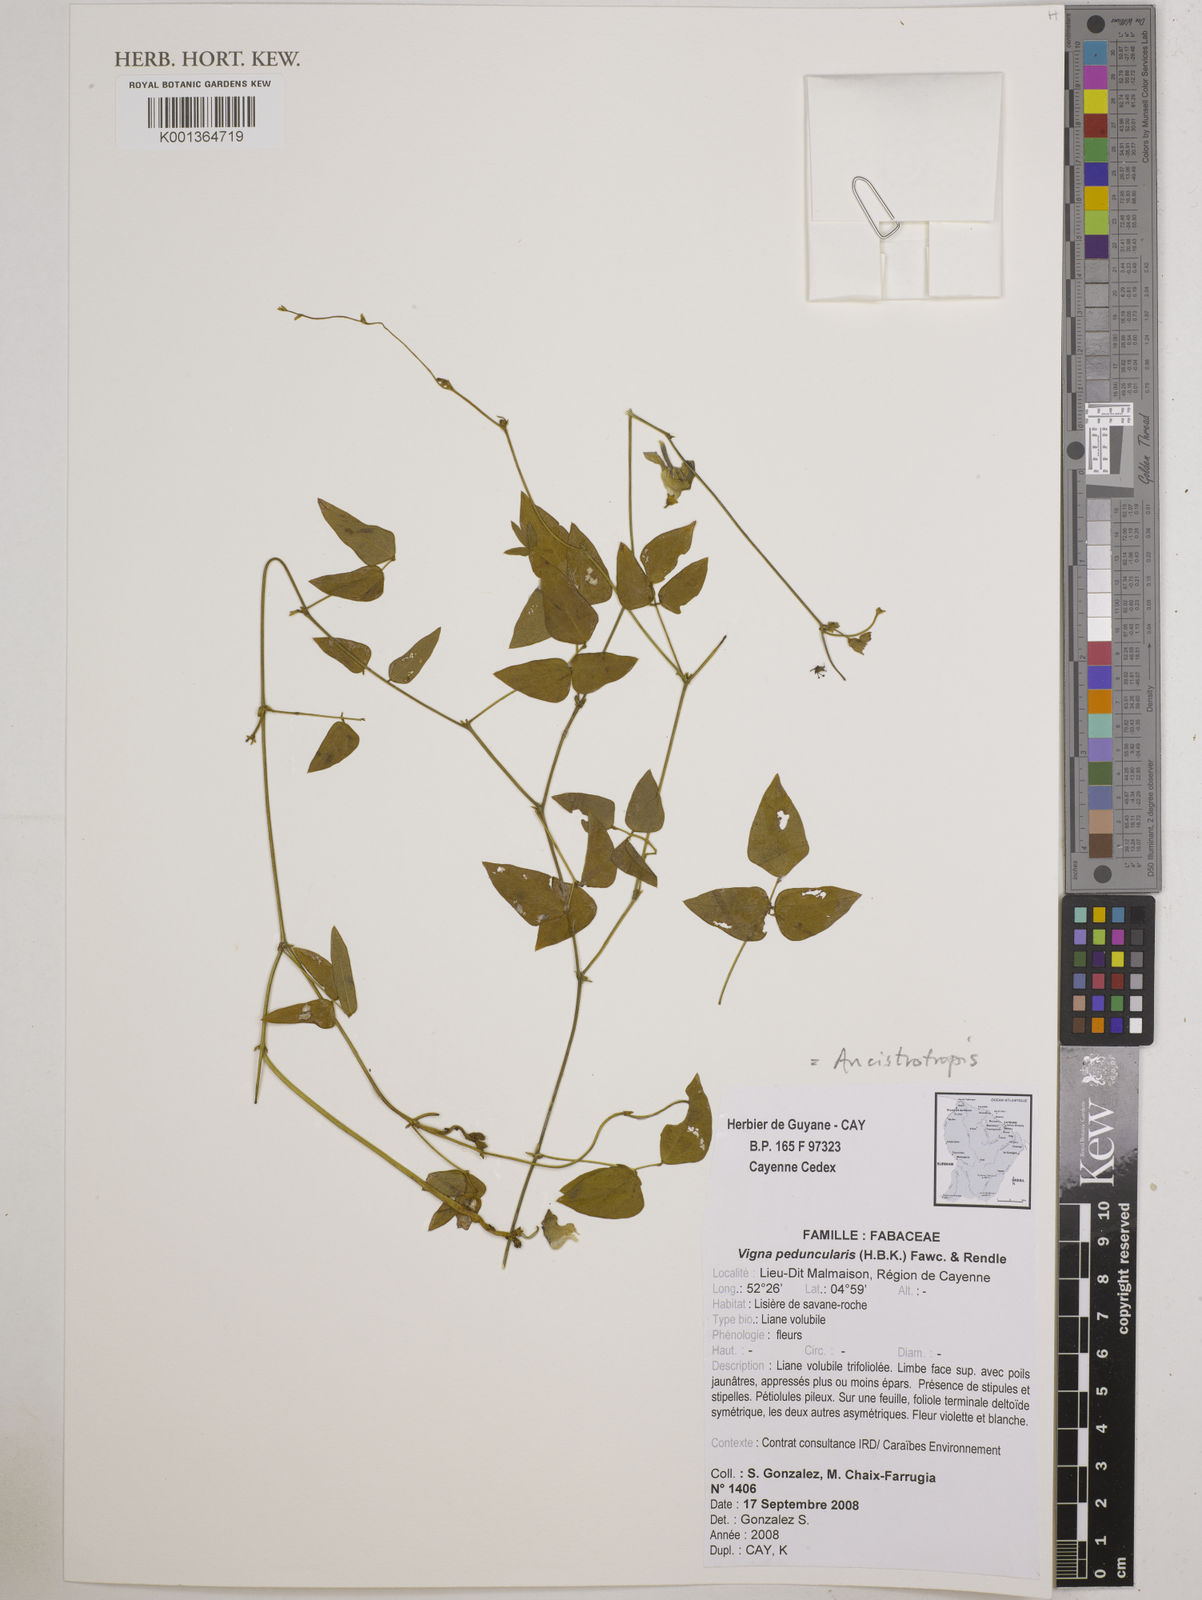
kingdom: Plantae
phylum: Tracheophyta
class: Magnoliopsida
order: Fabales
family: Fabaceae
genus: Ancistrotropis
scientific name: Ancistrotropis peduncularis
